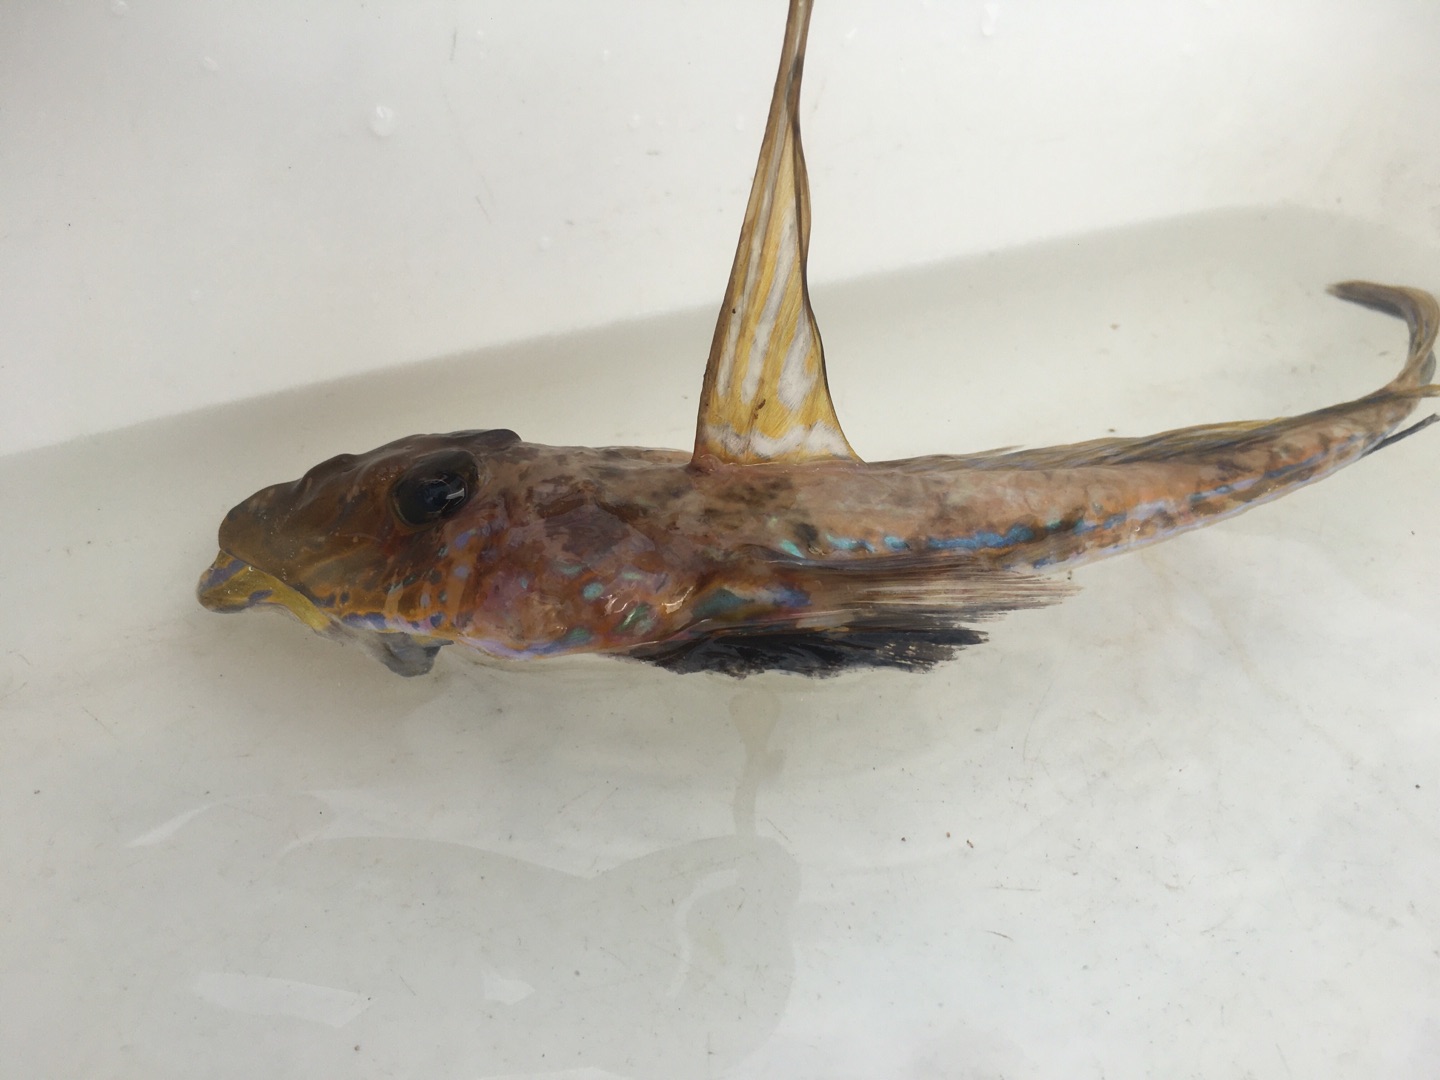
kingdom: Animalia
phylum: Chordata
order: Perciformes
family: Callionymidae
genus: Callionymus
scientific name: Callionymus lyra
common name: Stribet fløjfisk
